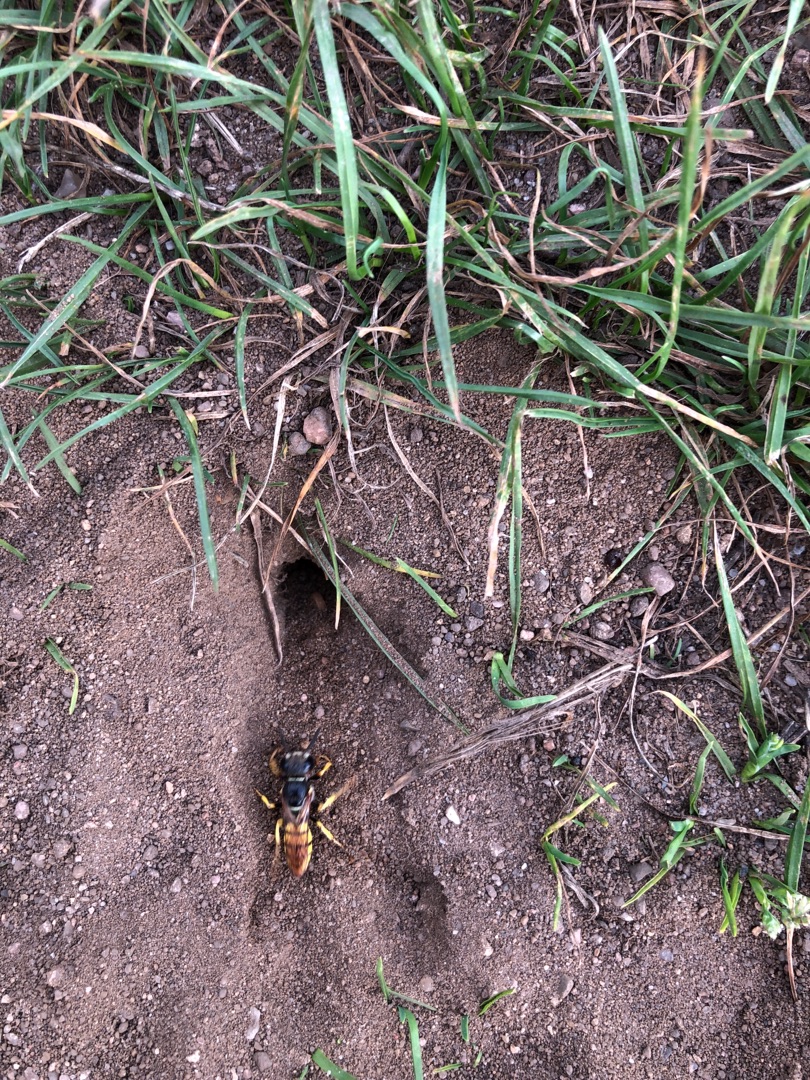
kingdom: Animalia
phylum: Arthropoda
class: Insecta
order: Hymenoptera
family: Crabronidae
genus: Philanthus
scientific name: Philanthus triangulum
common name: Biulv
